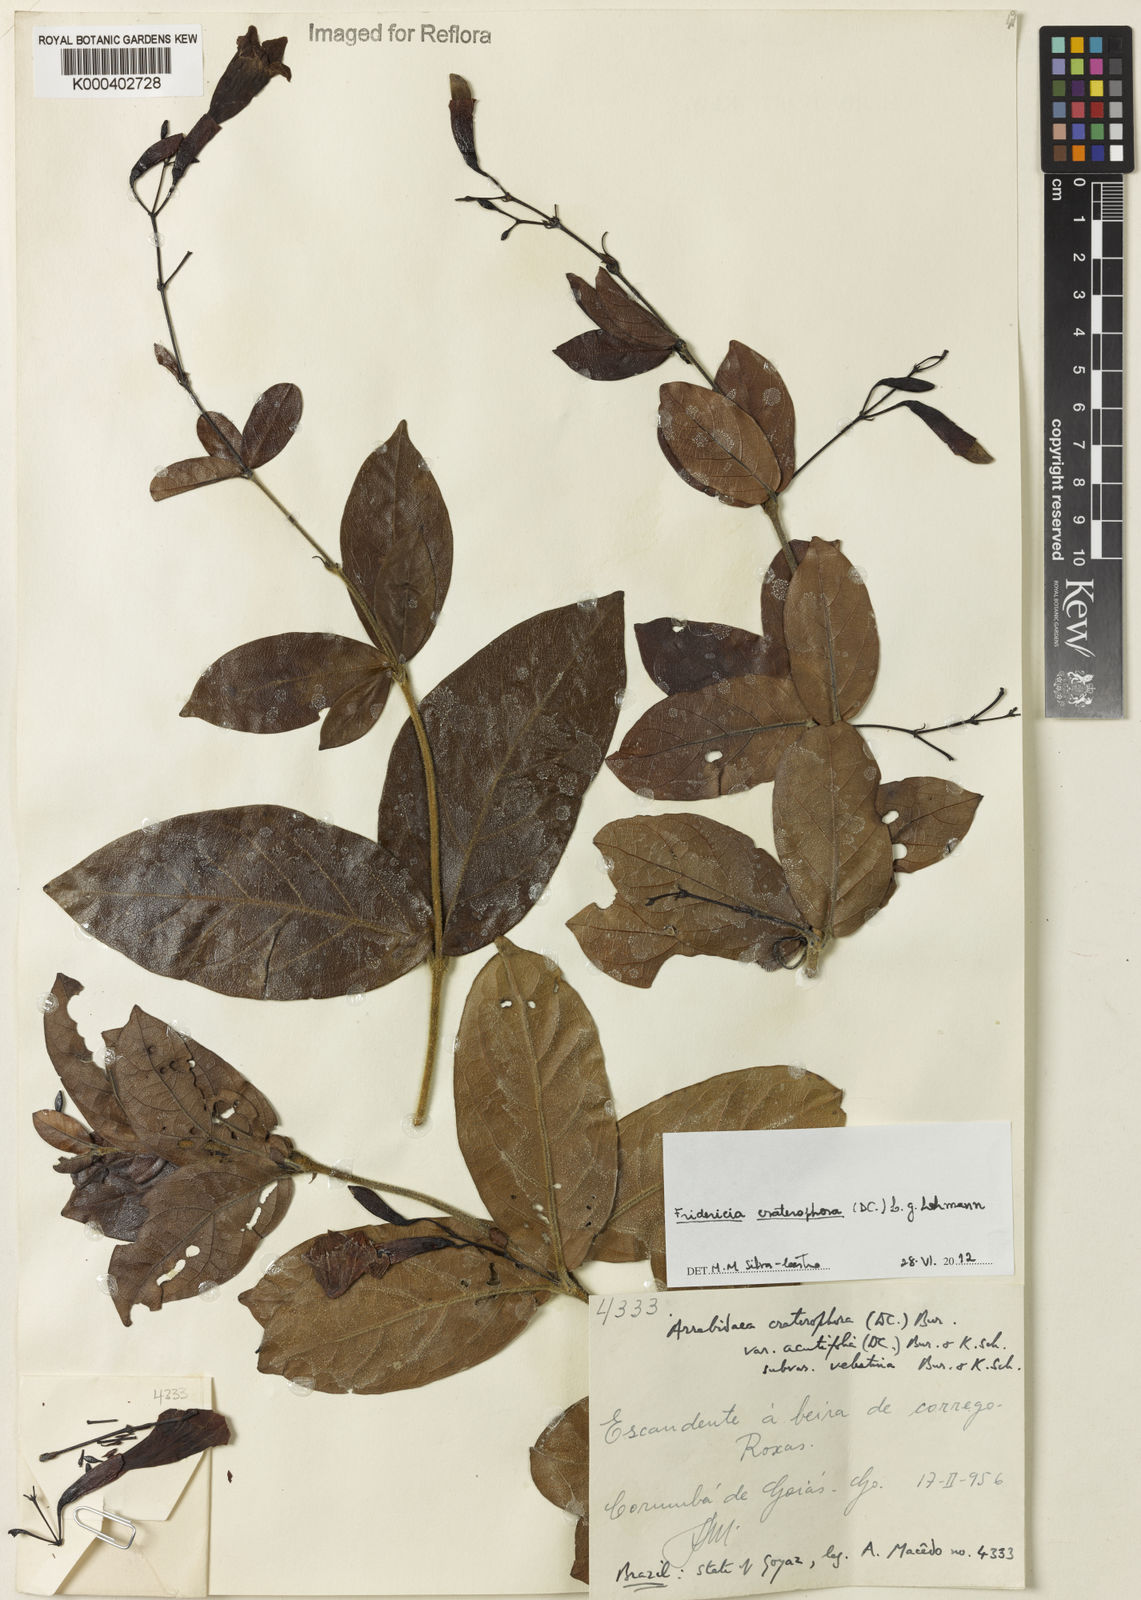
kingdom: Plantae
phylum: Tracheophyta
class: Magnoliopsida
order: Lamiales
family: Bignoniaceae
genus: Fridericia
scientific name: Fridericia craterophora
